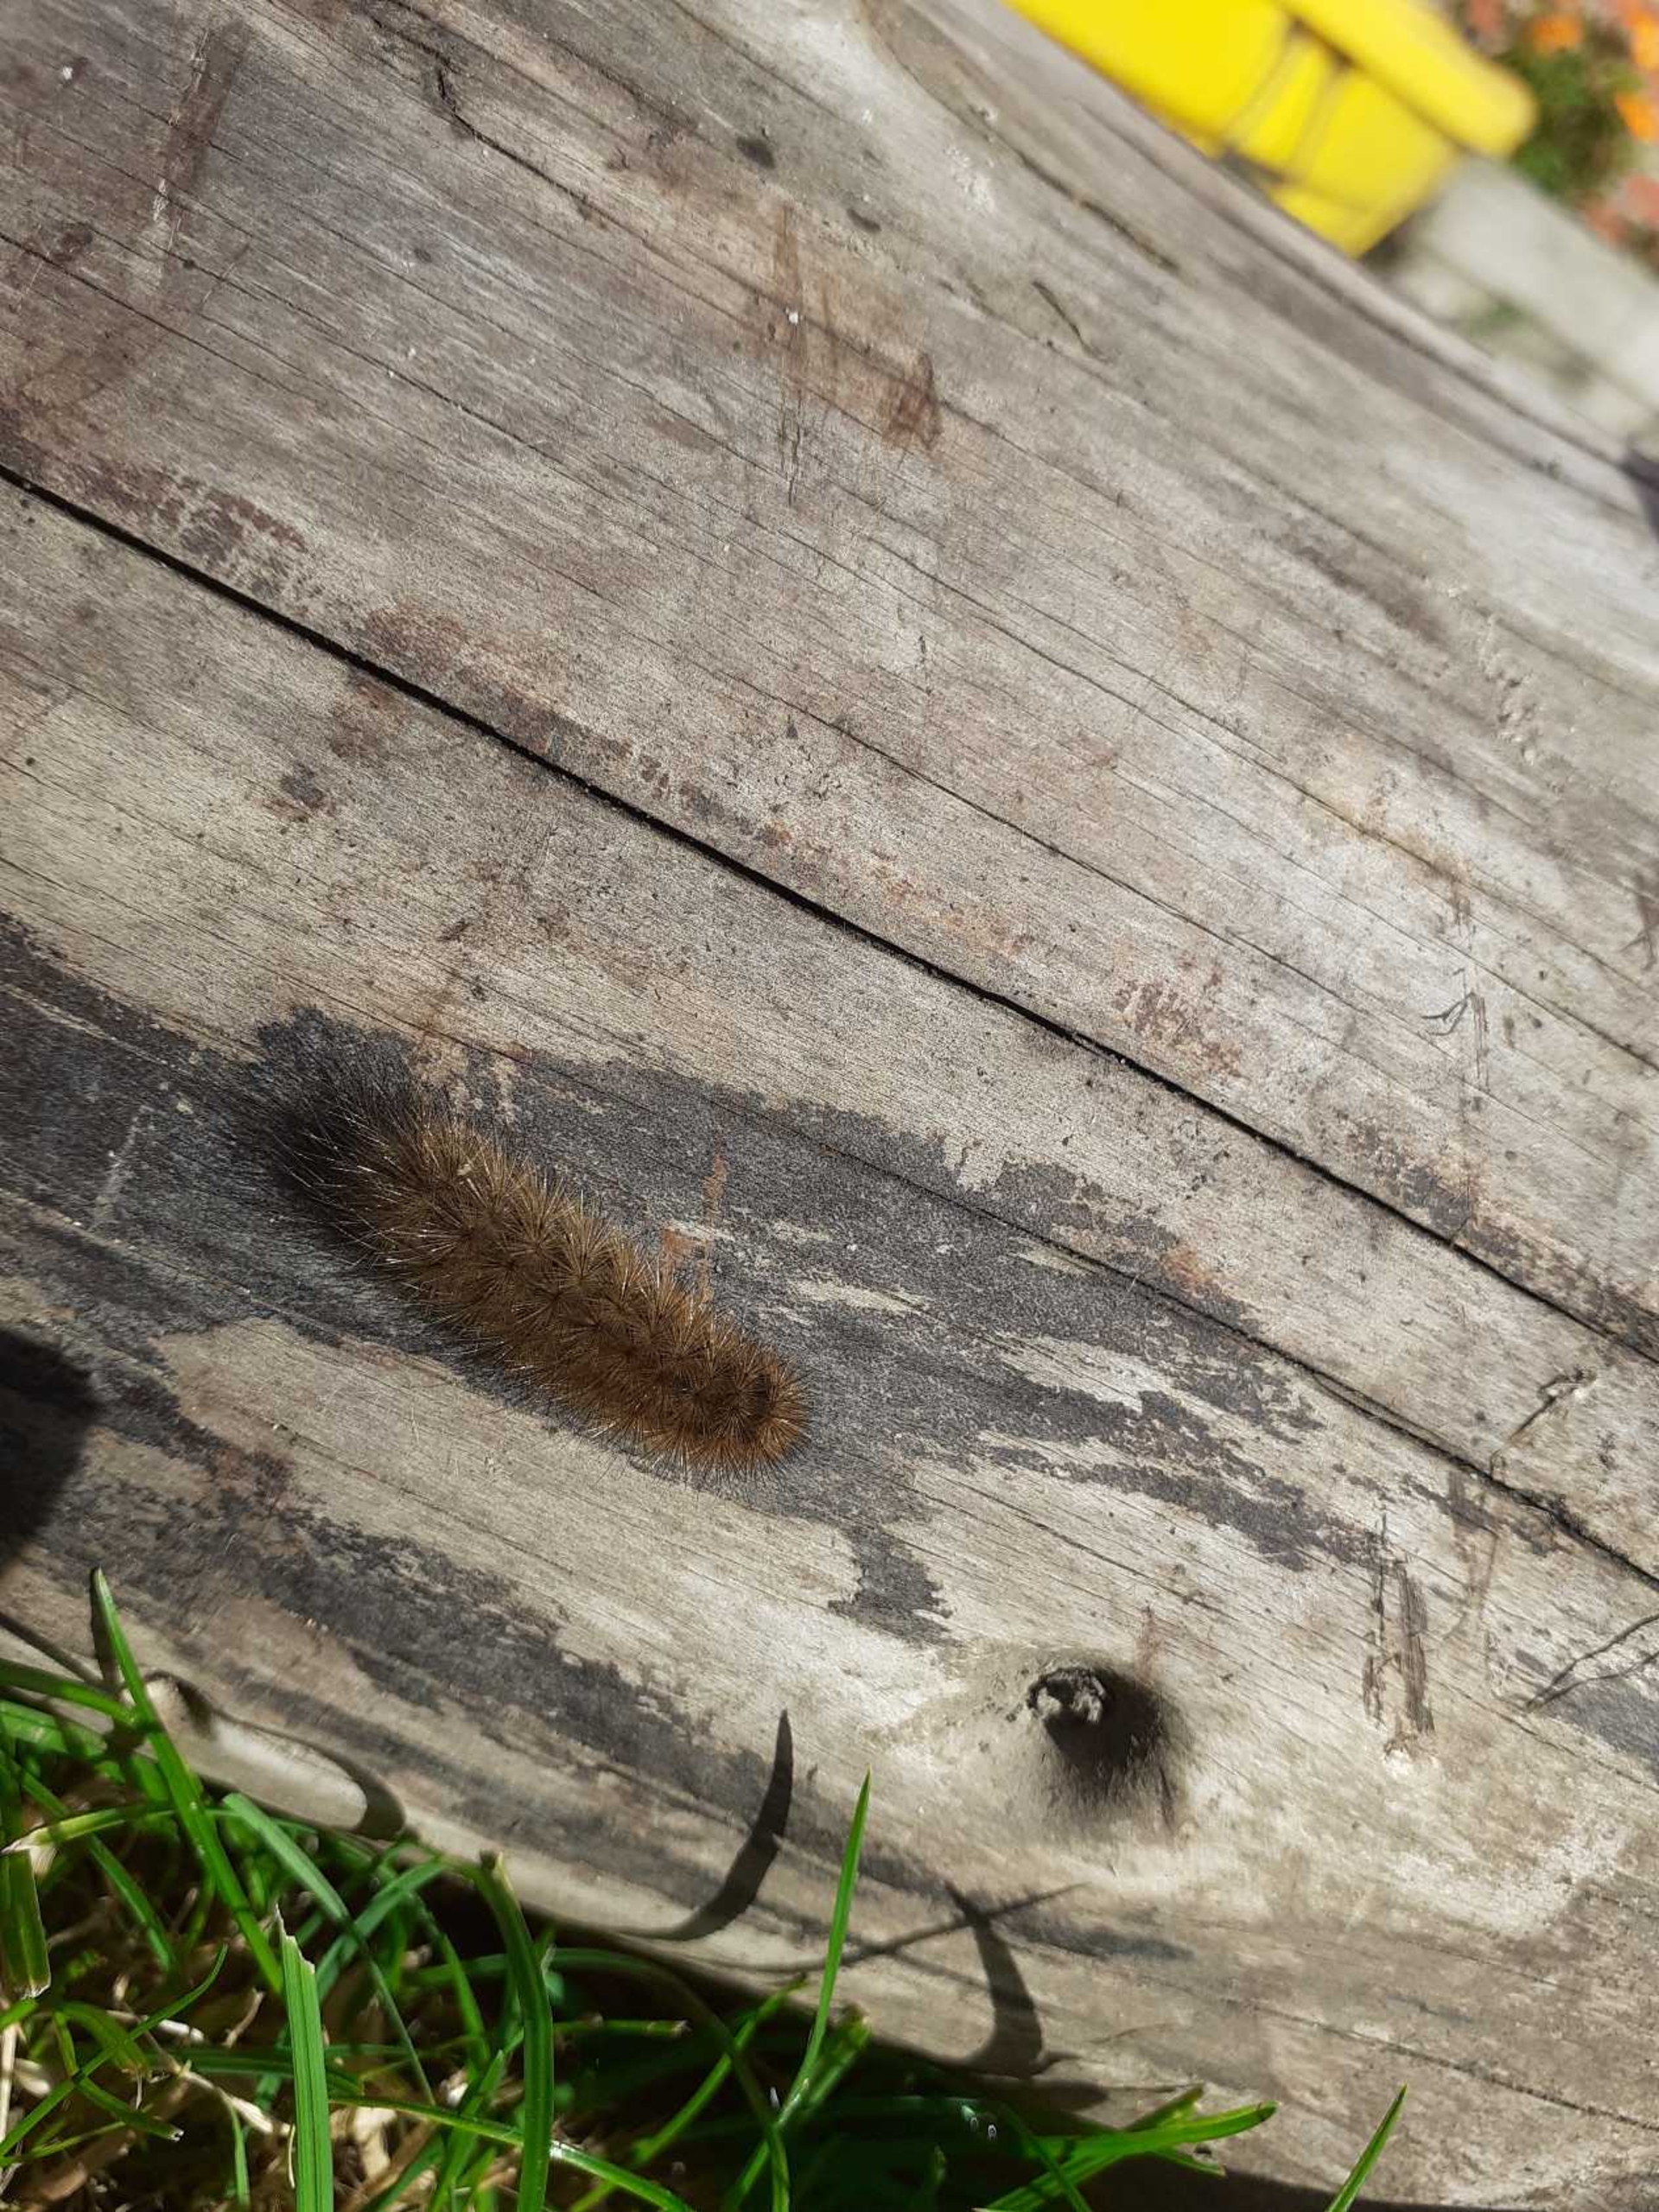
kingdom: Animalia
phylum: Arthropoda
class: Insecta
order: Lepidoptera
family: Erebidae
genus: Phragmatobia
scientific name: Phragmatobia fuliginosa
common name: Kanelbjørn
